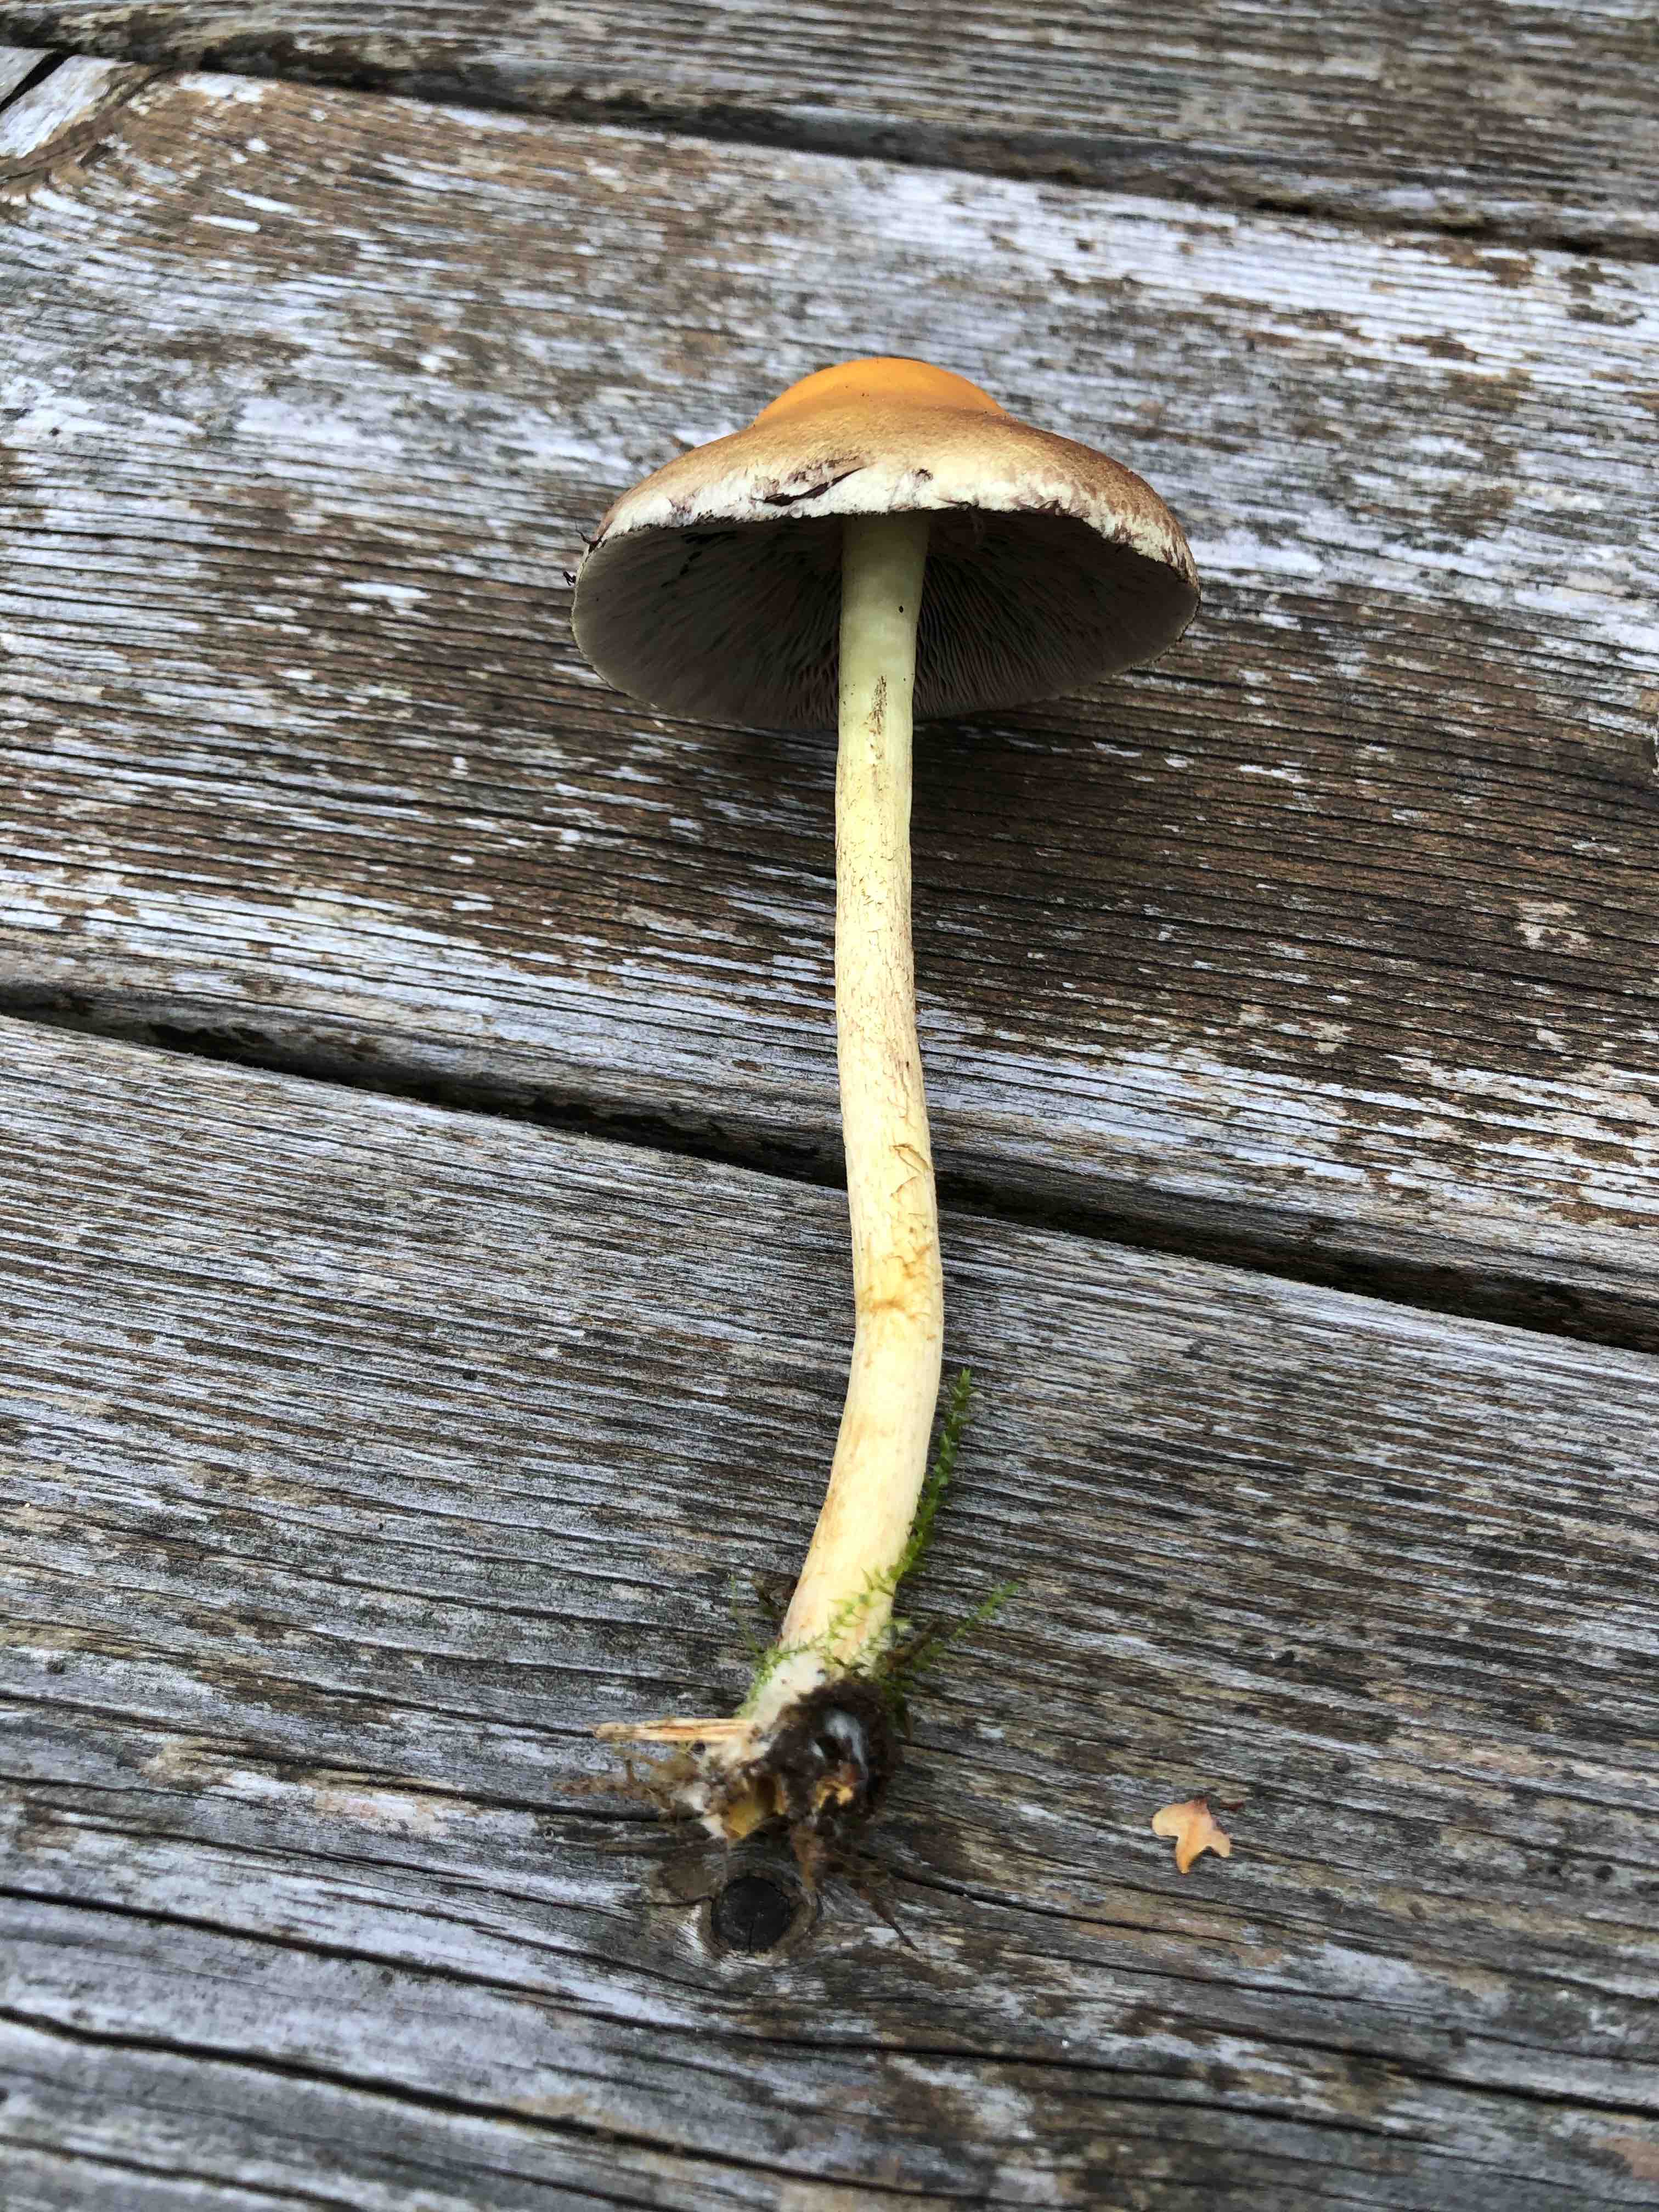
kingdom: Fungi
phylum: Basidiomycota
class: Agaricomycetes
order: Agaricales
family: Strophariaceae
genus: Hypholoma
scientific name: Hypholoma
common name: svovlhat
